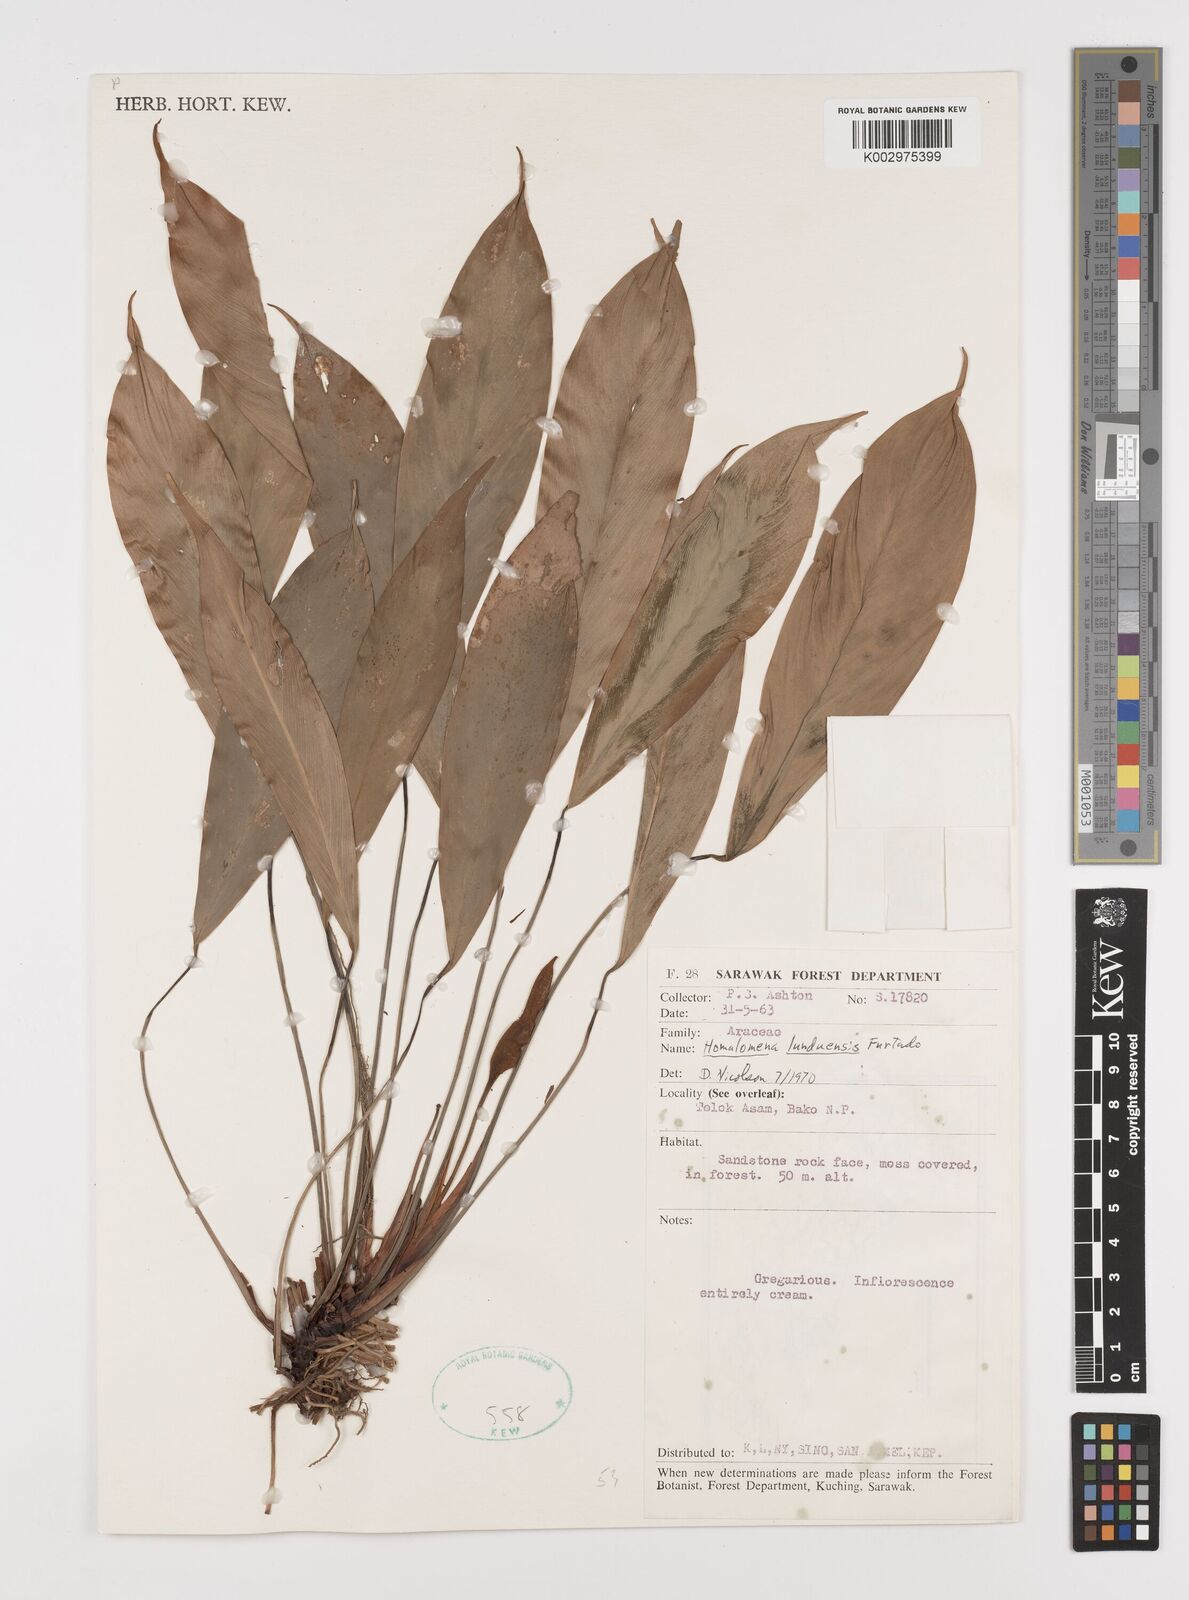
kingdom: Plantae
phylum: Tracheophyta
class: Liliopsida
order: Alismatales
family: Araceae
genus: Homalomena
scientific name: Homalomena havilandii
